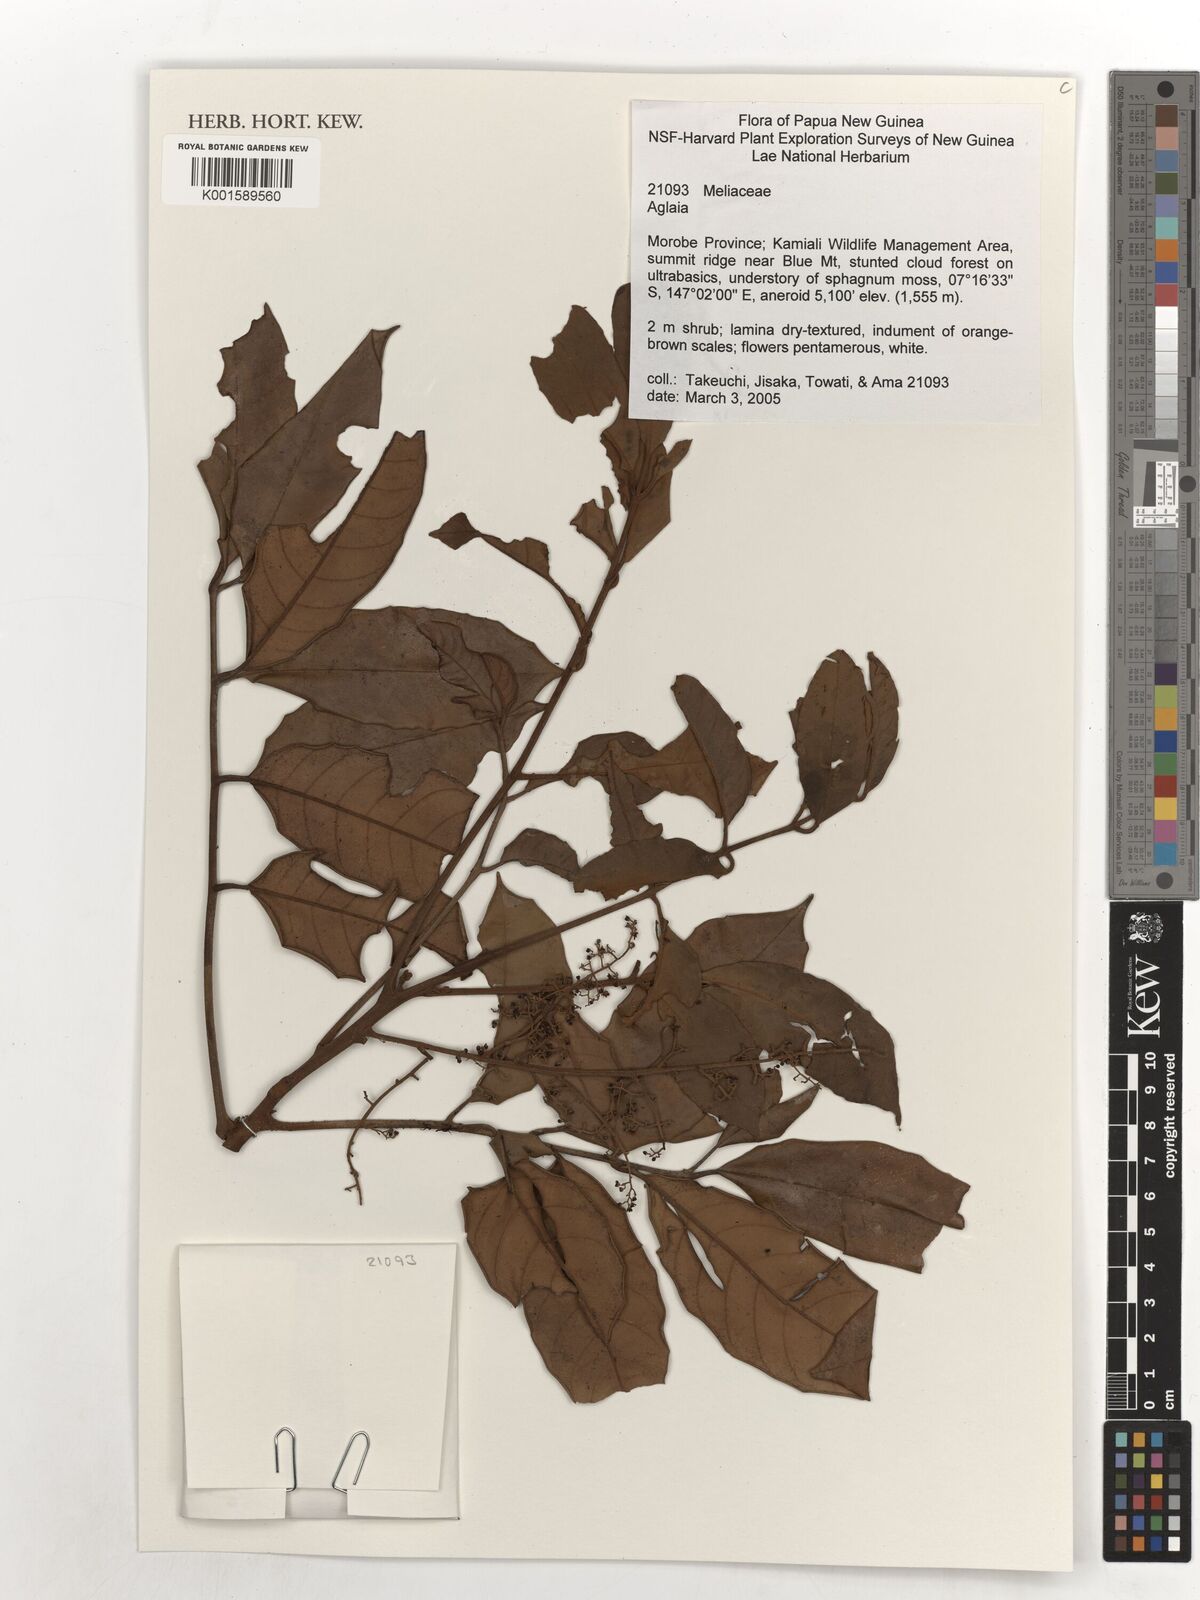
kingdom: Plantae
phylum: Tracheophyta
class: Magnoliopsida
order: Sapindales
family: Meliaceae
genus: Aglaia
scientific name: Aglaia
